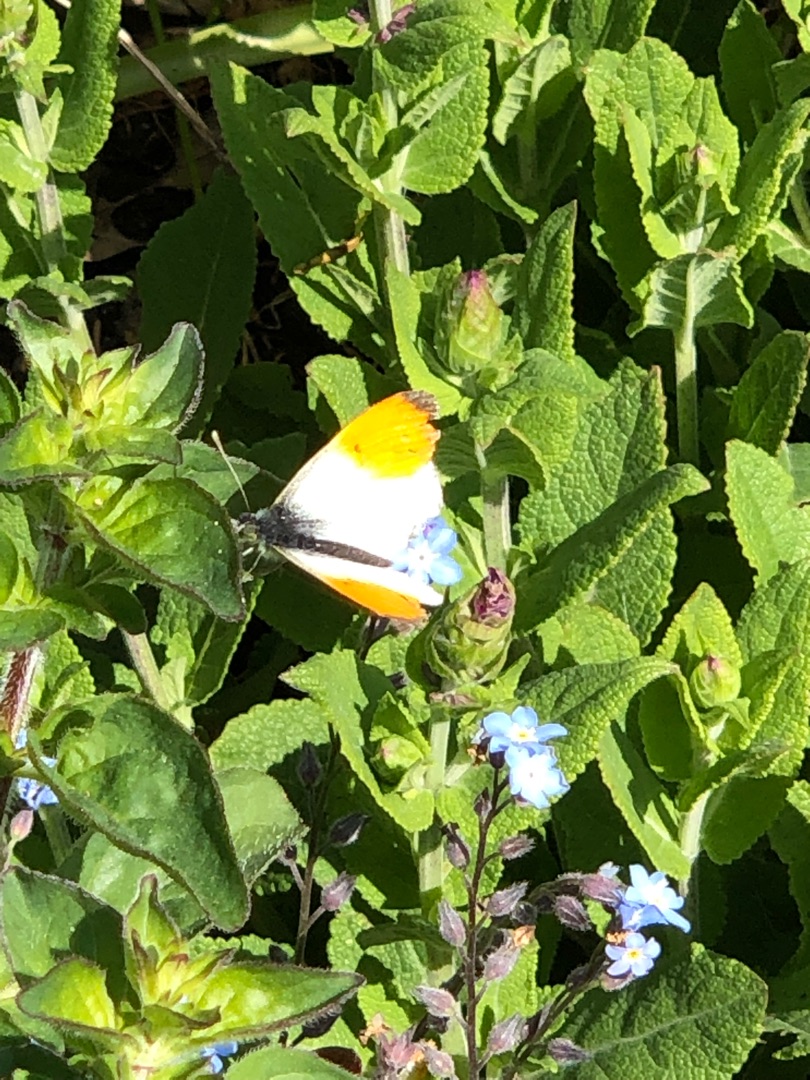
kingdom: Animalia
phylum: Arthropoda
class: Insecta
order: Lepidoptera
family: Pieridae
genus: Anthocharis
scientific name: Anthocharis cardamines
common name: Aurora
